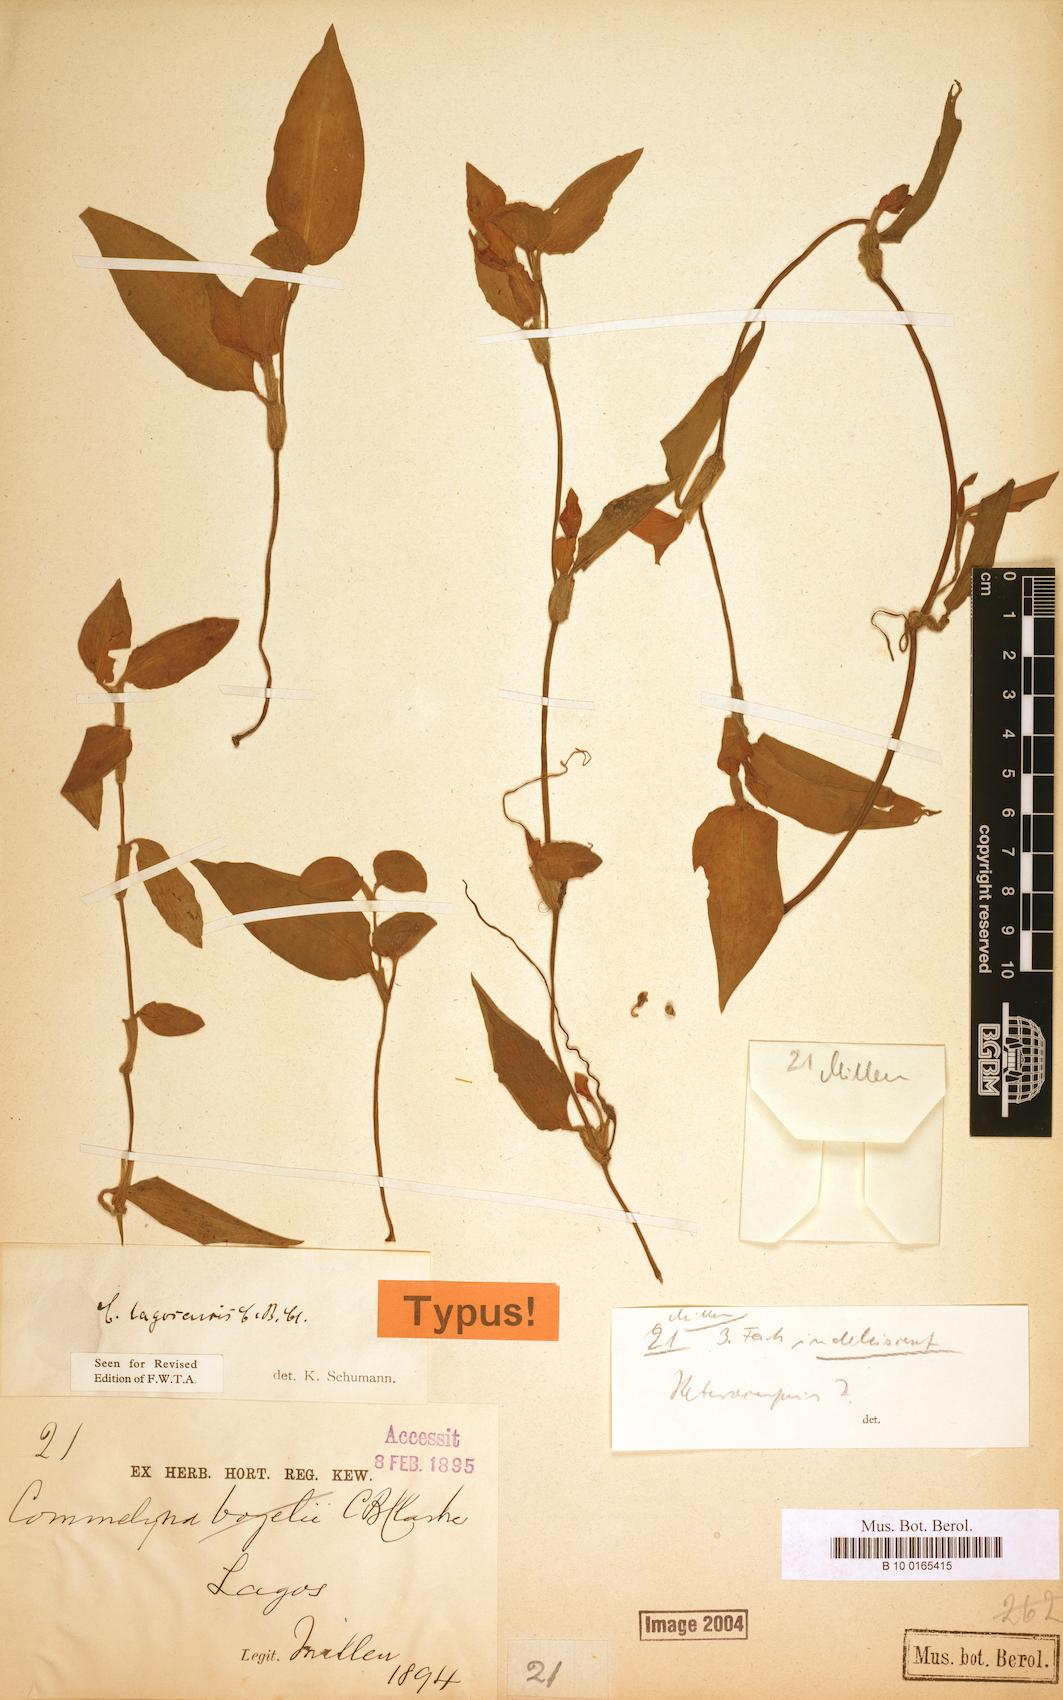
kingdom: Plantae
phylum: Tracheophyta
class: Liliopsida
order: Commelinales
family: Commelinaceae
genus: Commelina
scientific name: Commelina bracteosa
